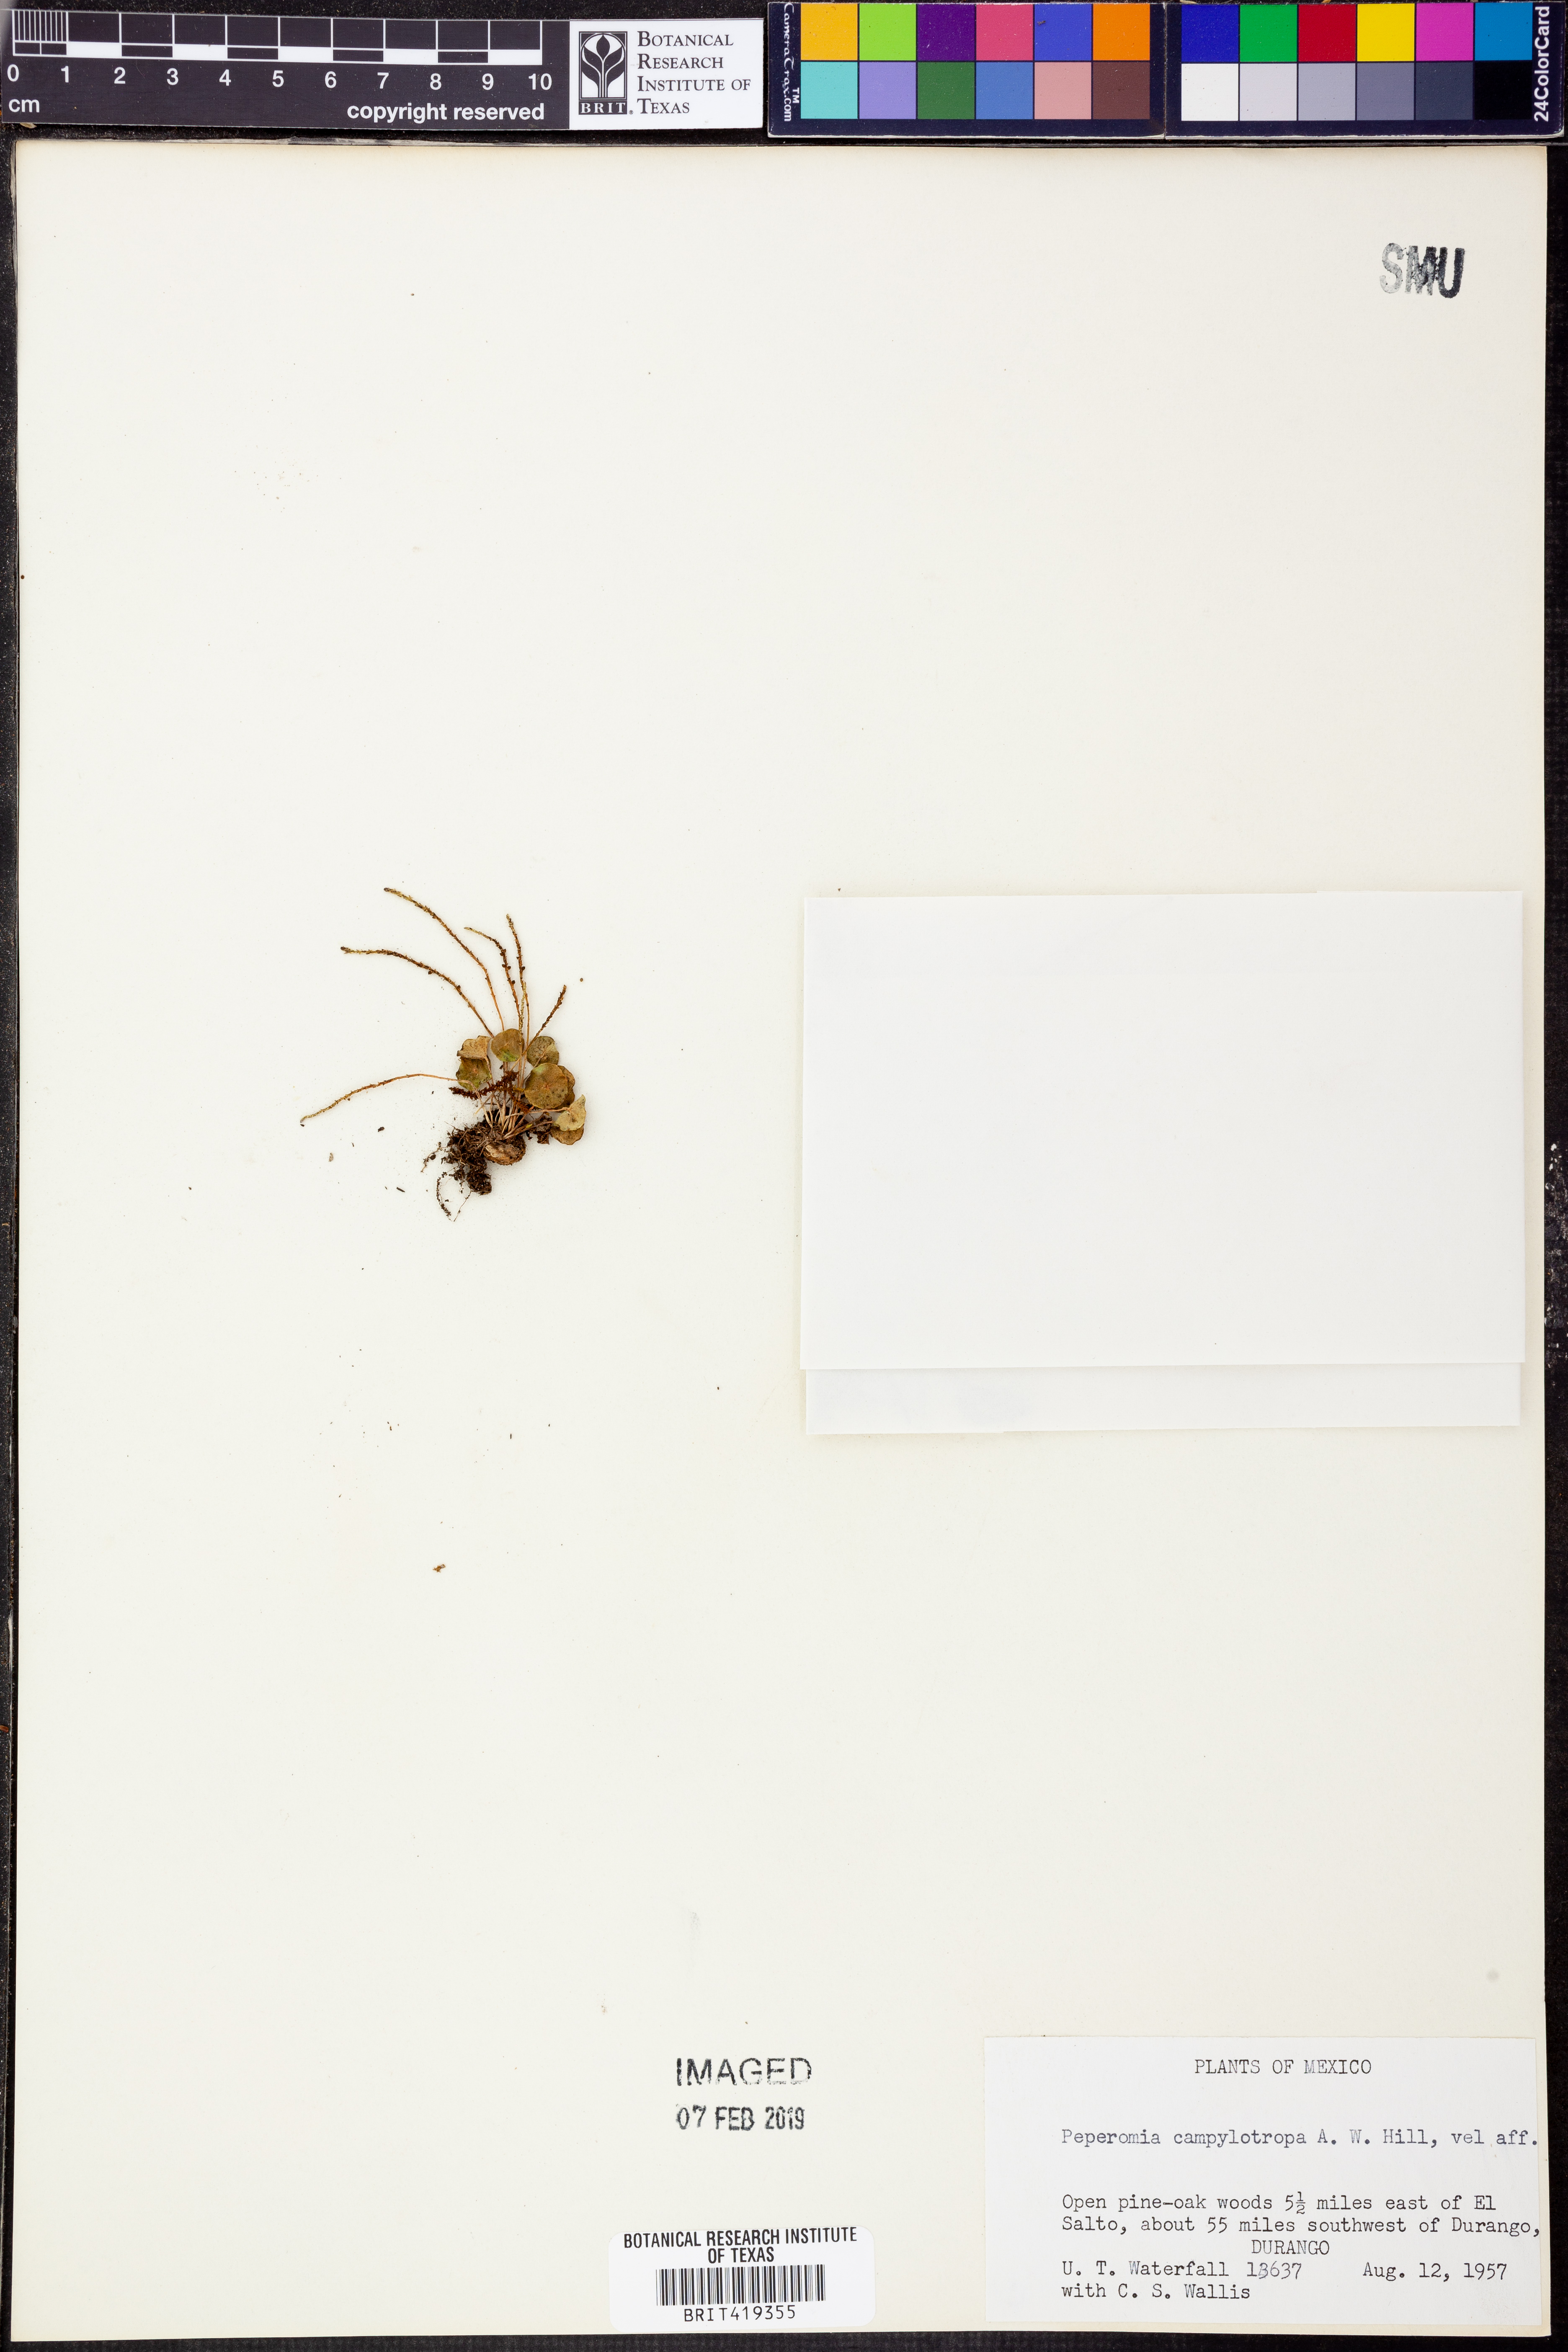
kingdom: Plantae
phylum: Tracheophyta
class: Magnoliopsida
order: Piperales
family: Piperaceae
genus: Peperomia
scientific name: Peperomia campylotropa
